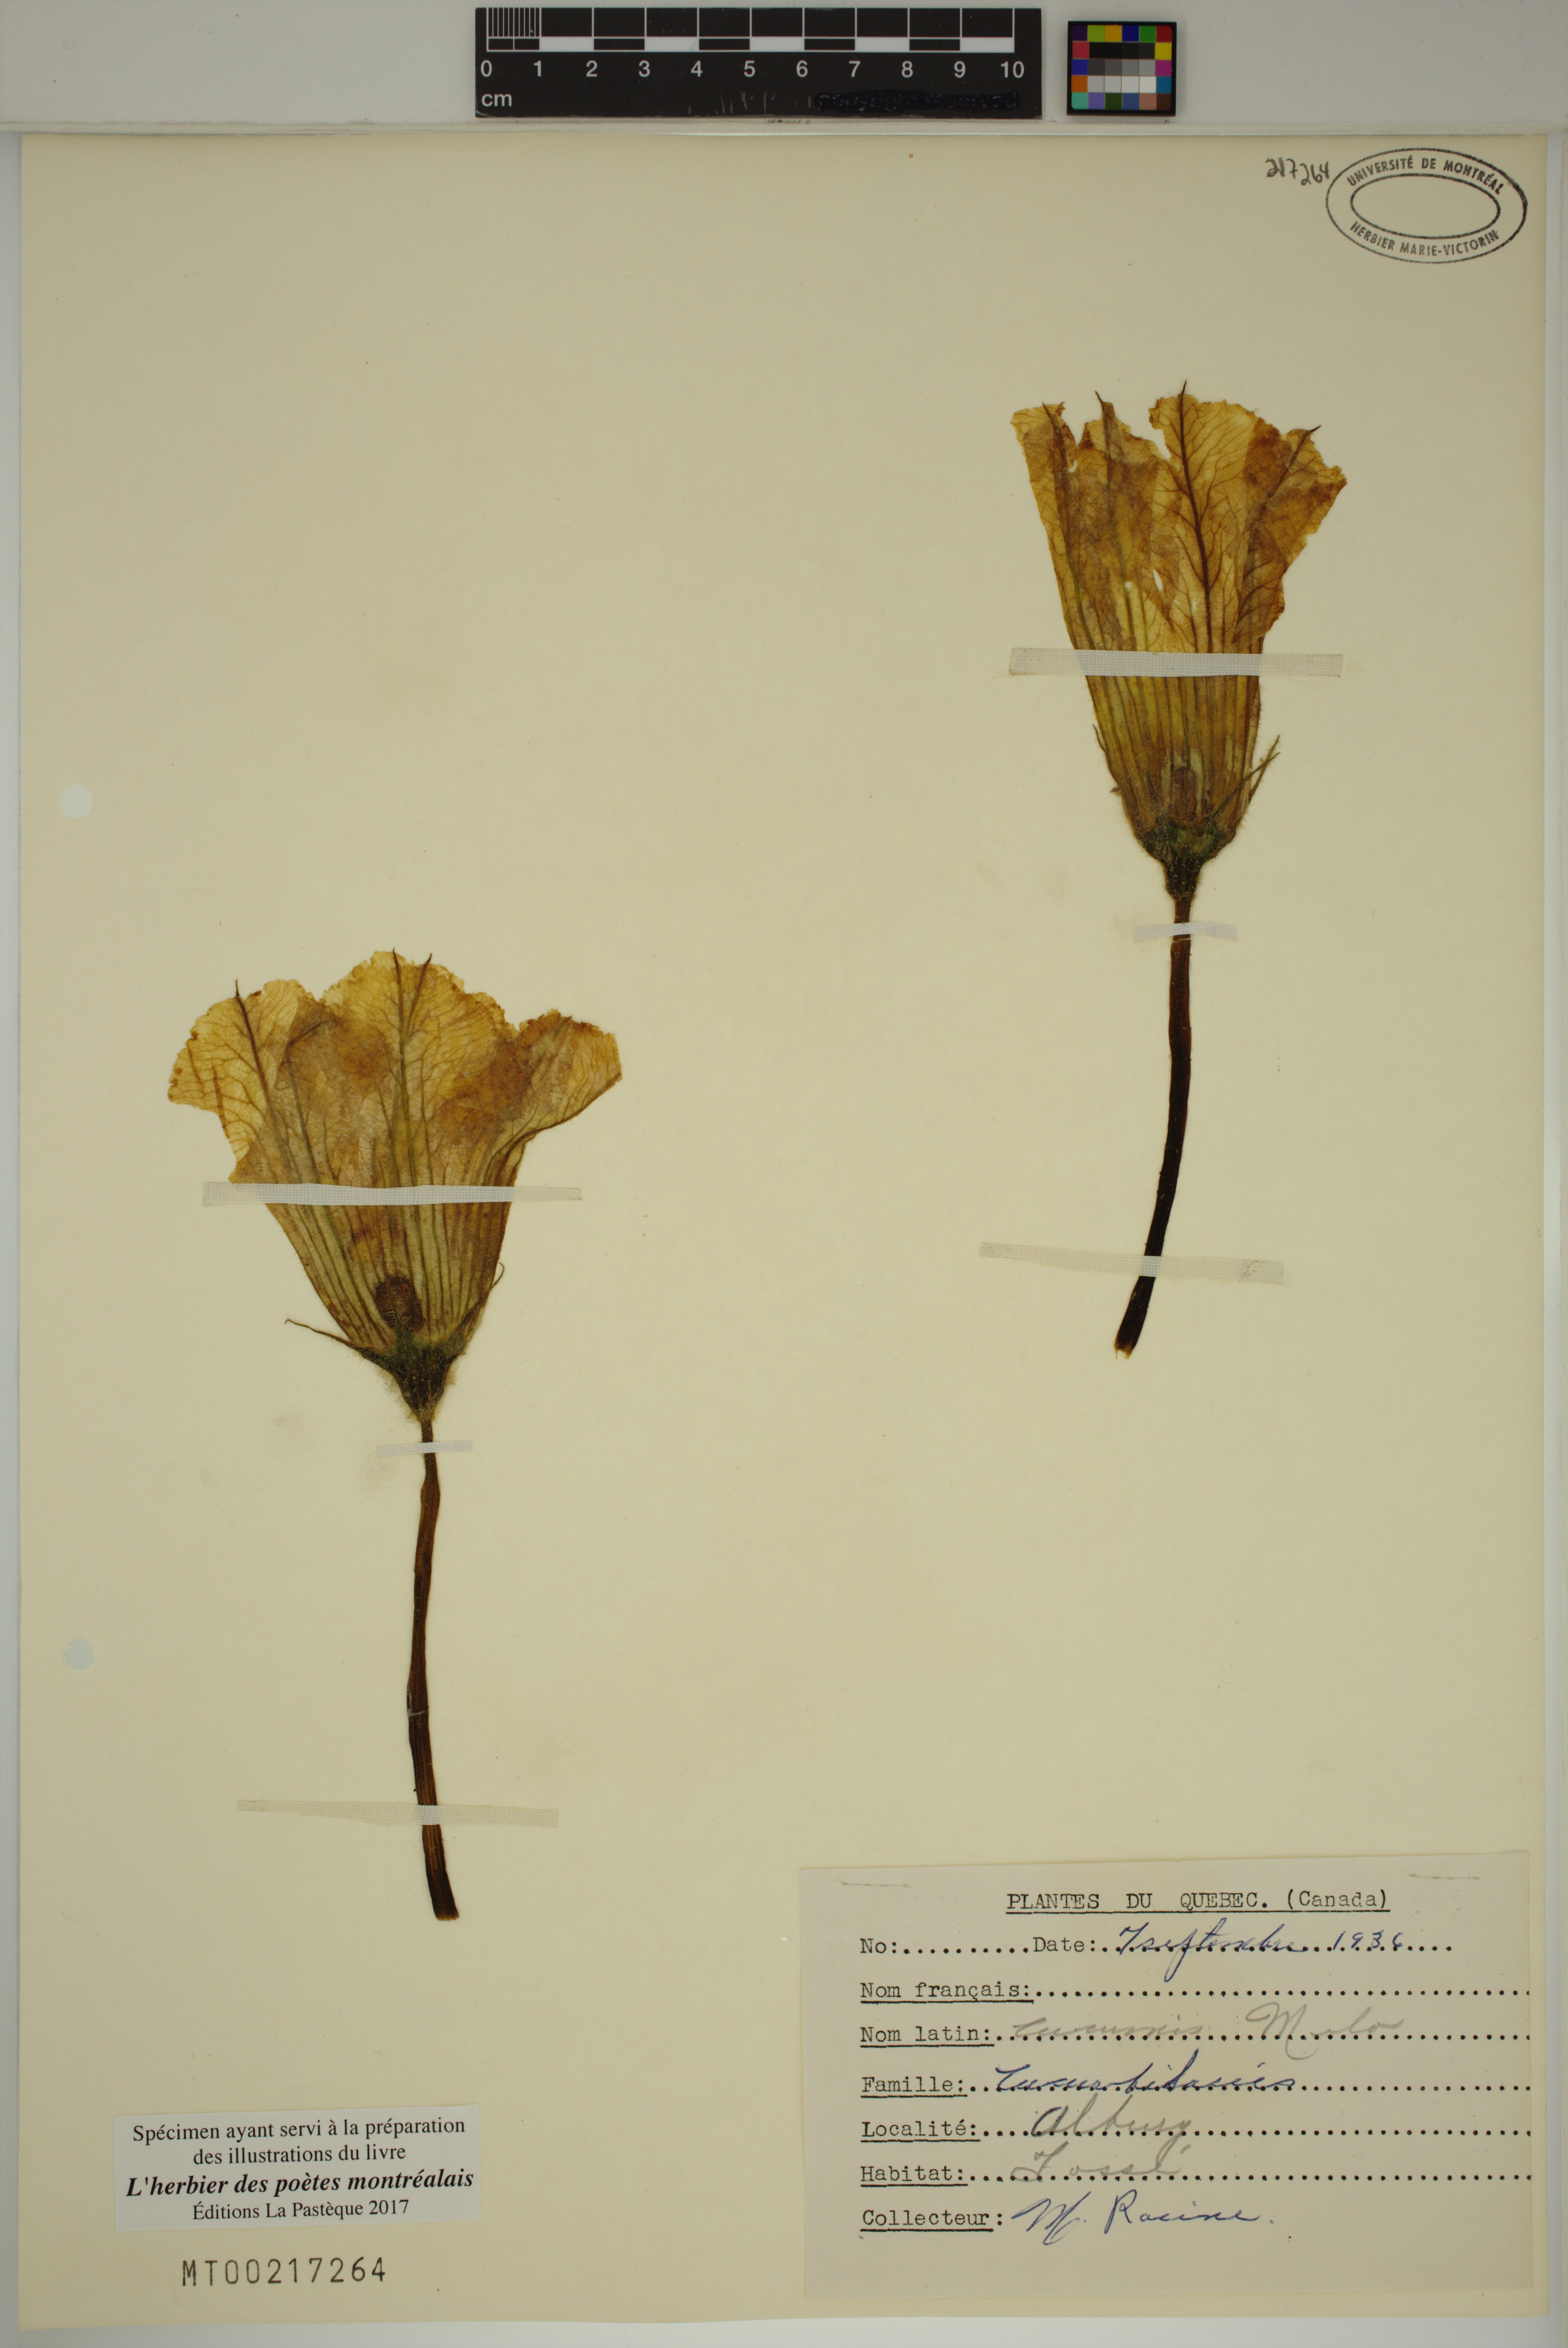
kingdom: Plantae
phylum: Tracheophyta
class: Magnoliopsida
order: Cucurbitales
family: Cucurbitaceae
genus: Cucumis
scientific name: Cucumis melo
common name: Melon
